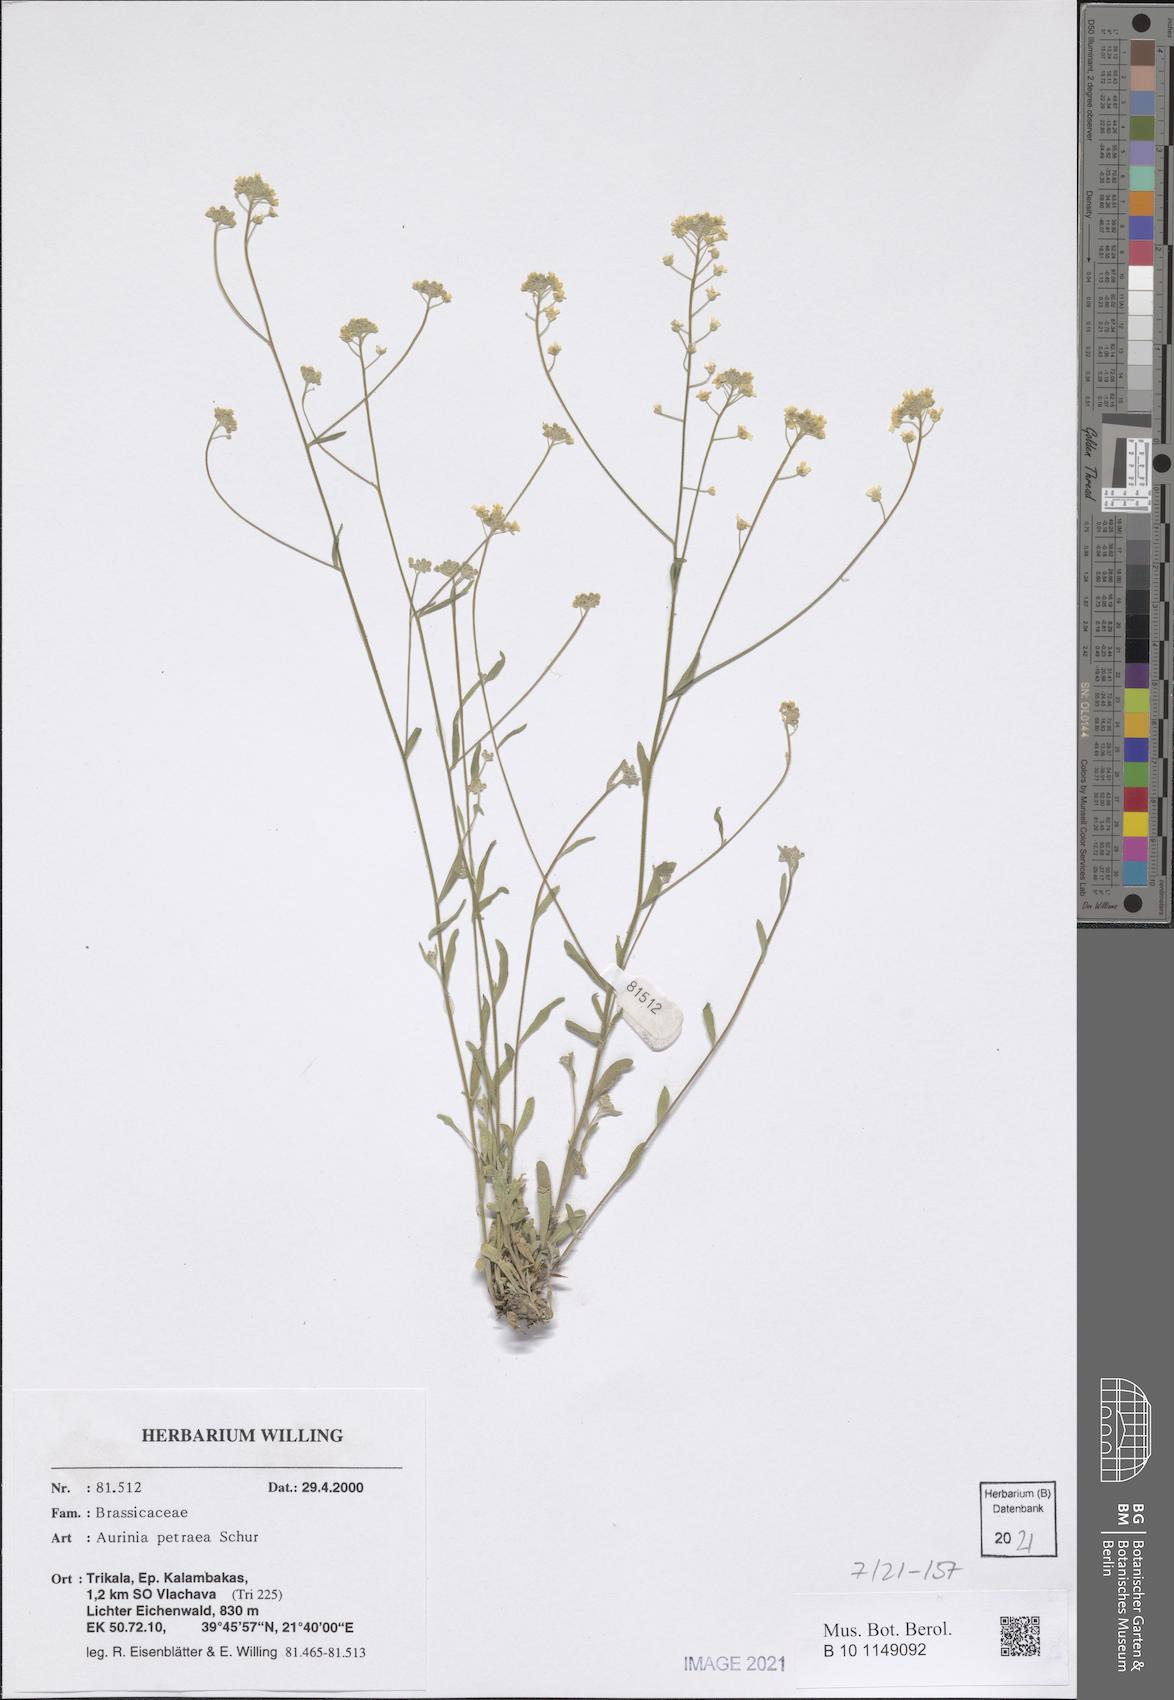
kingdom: Plantae
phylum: Tracheophyta
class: Magnoliopsida
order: Brassicales
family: Brassicaceae
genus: Aurinia
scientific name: Aurinia petraea
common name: Goldentuft
